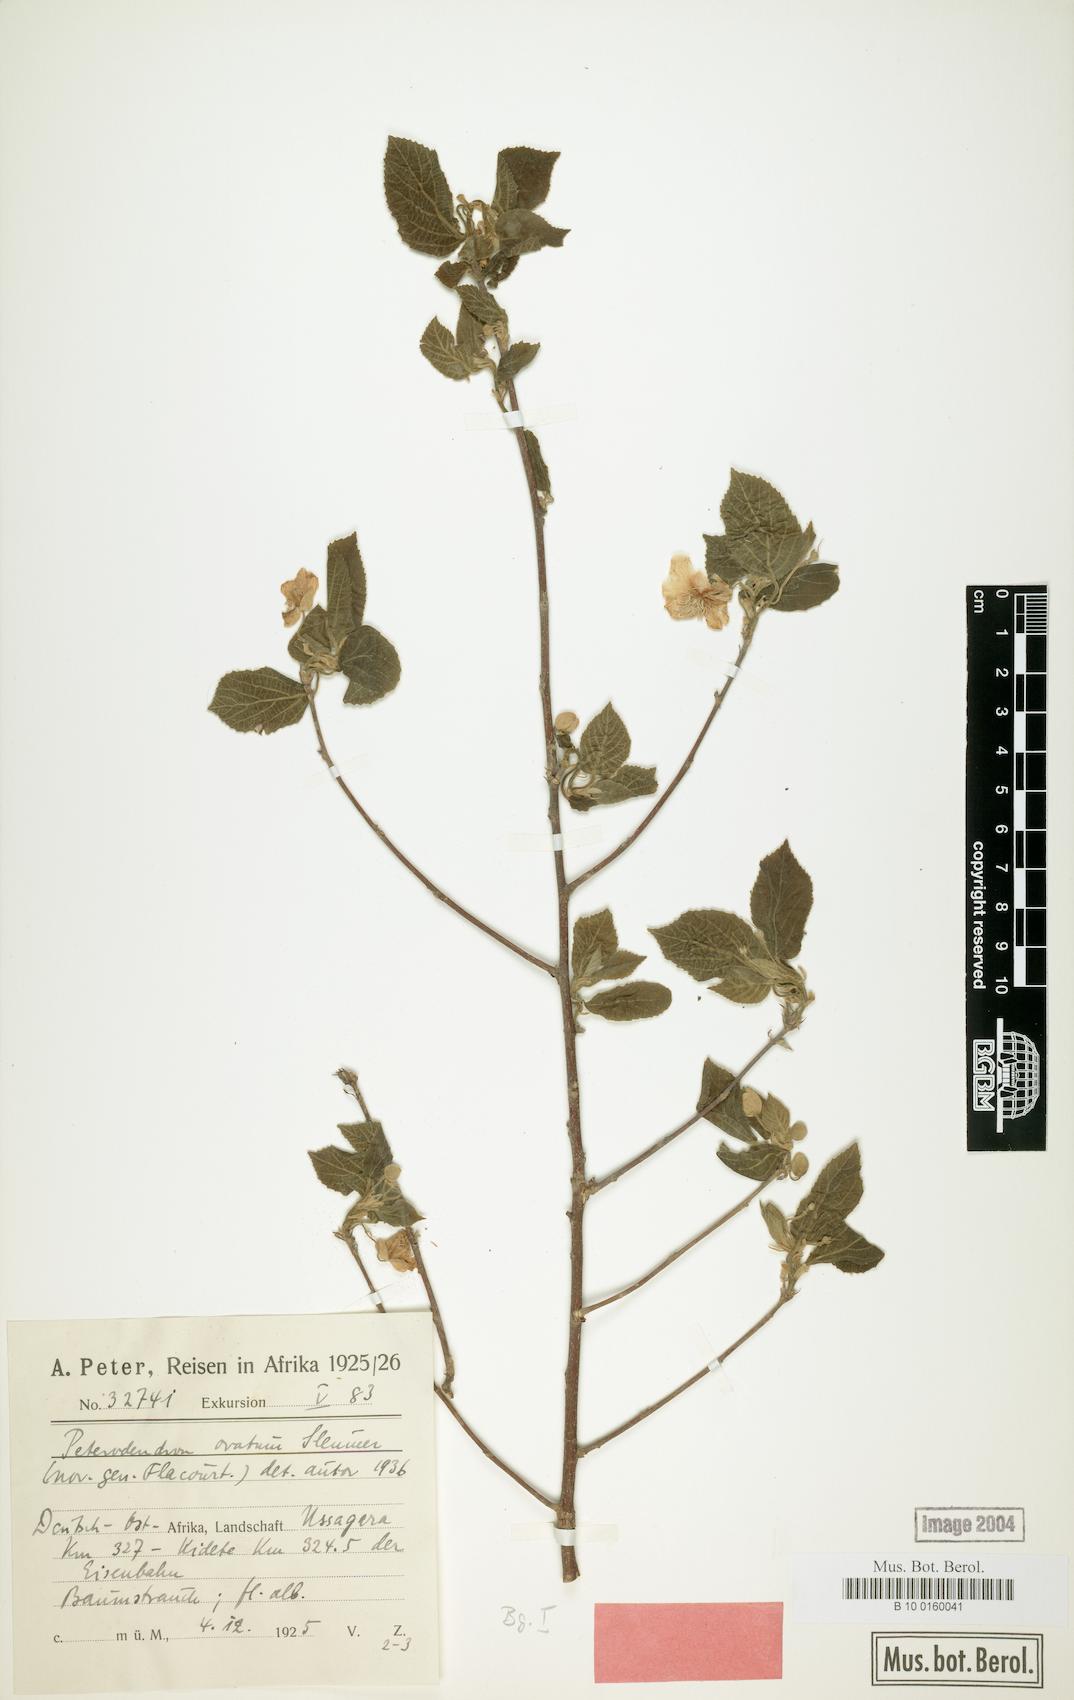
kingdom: Plantae
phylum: Tracheophyta
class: Magnoliopsida
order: Malpighiales
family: Achariaceae
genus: Peterodendron
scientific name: Peterodendron ovatum
